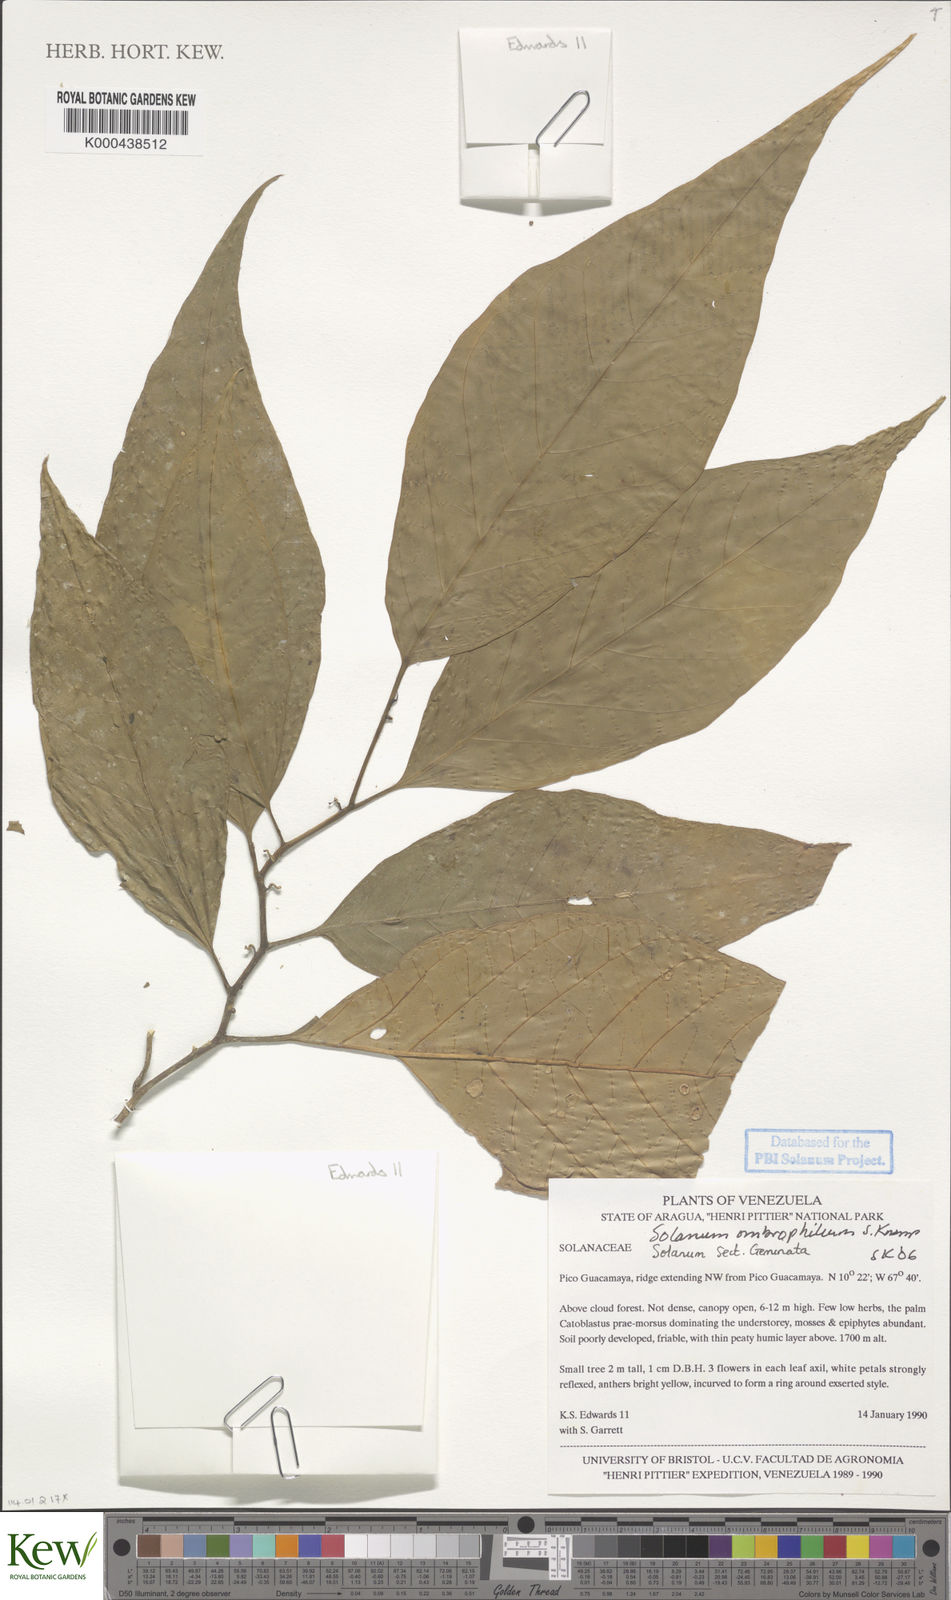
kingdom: Plantae
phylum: Tracheophyta
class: Magnoliopsida
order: Solanales
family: Solanaceae
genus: Solanum
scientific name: Solanum ombrophilum
